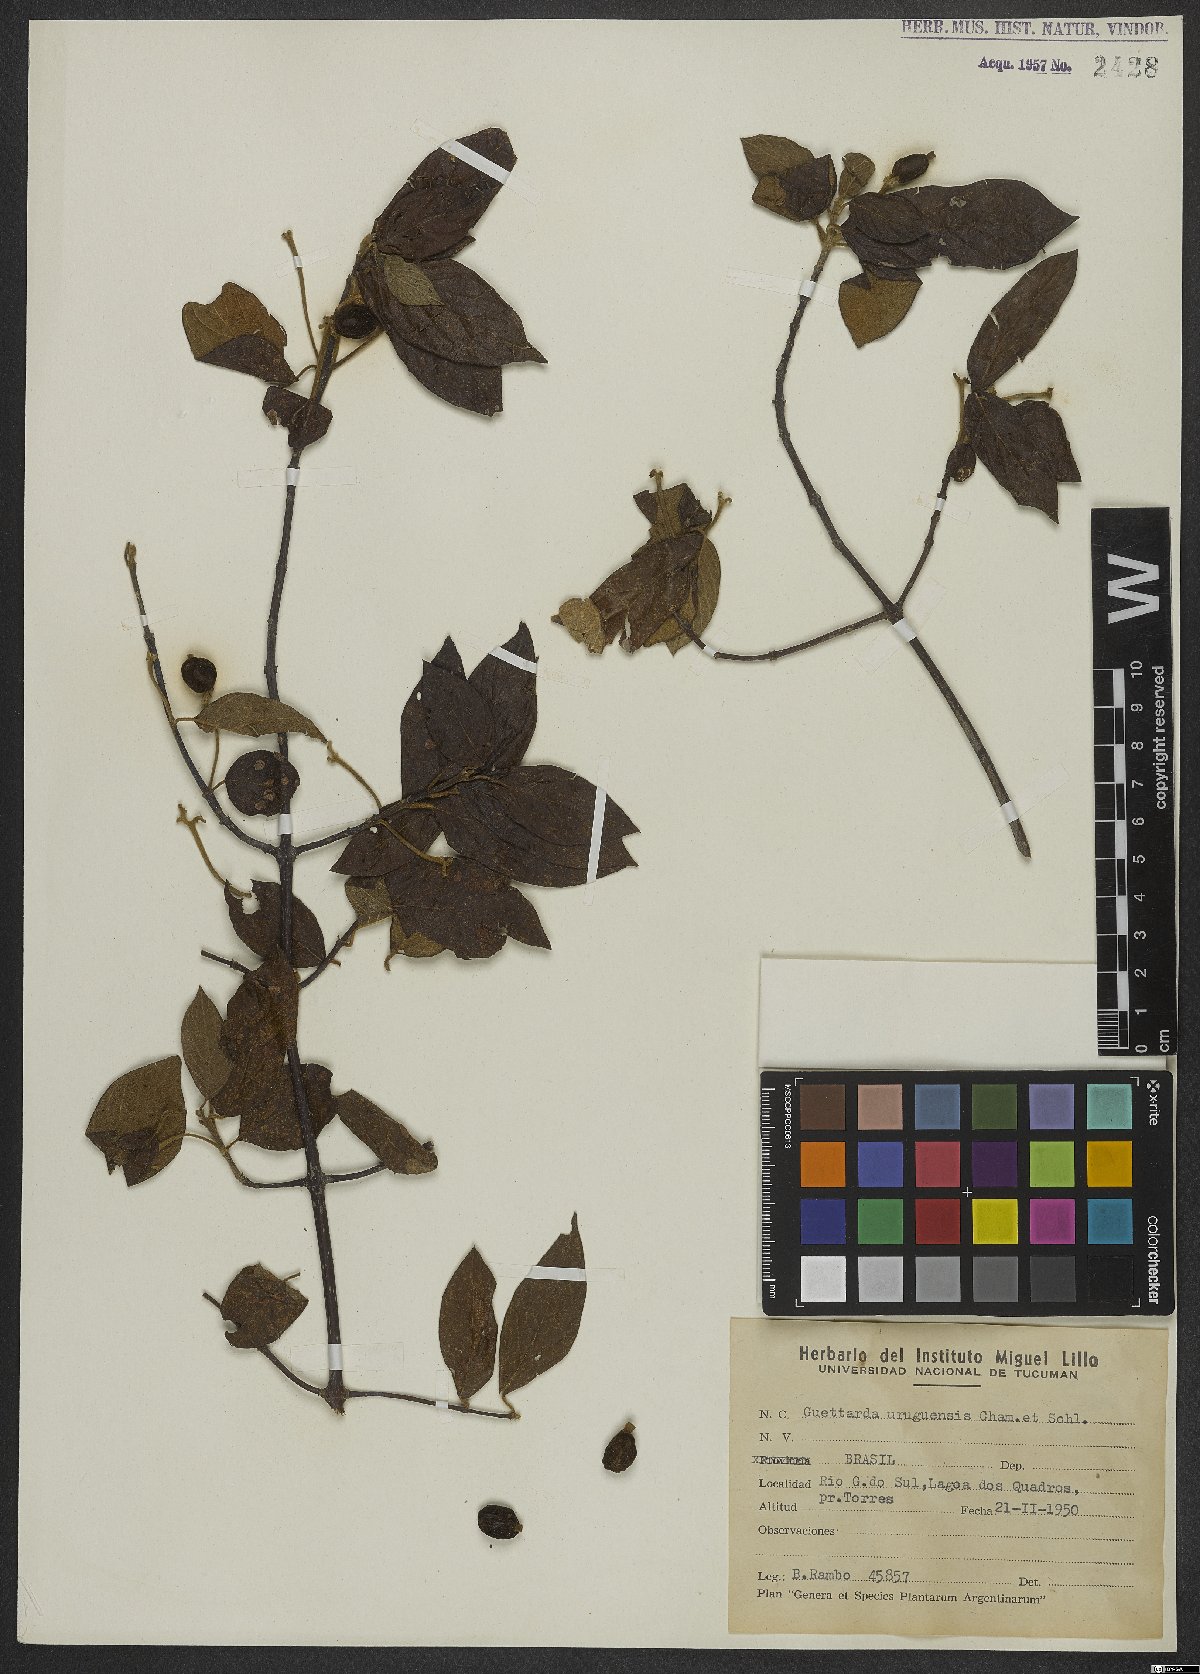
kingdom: Plantae
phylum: Tracheophyta
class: Magnoliopsida
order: Gentianales
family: Rubiaceae
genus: Guettarda
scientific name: Guettarda uruguensis
